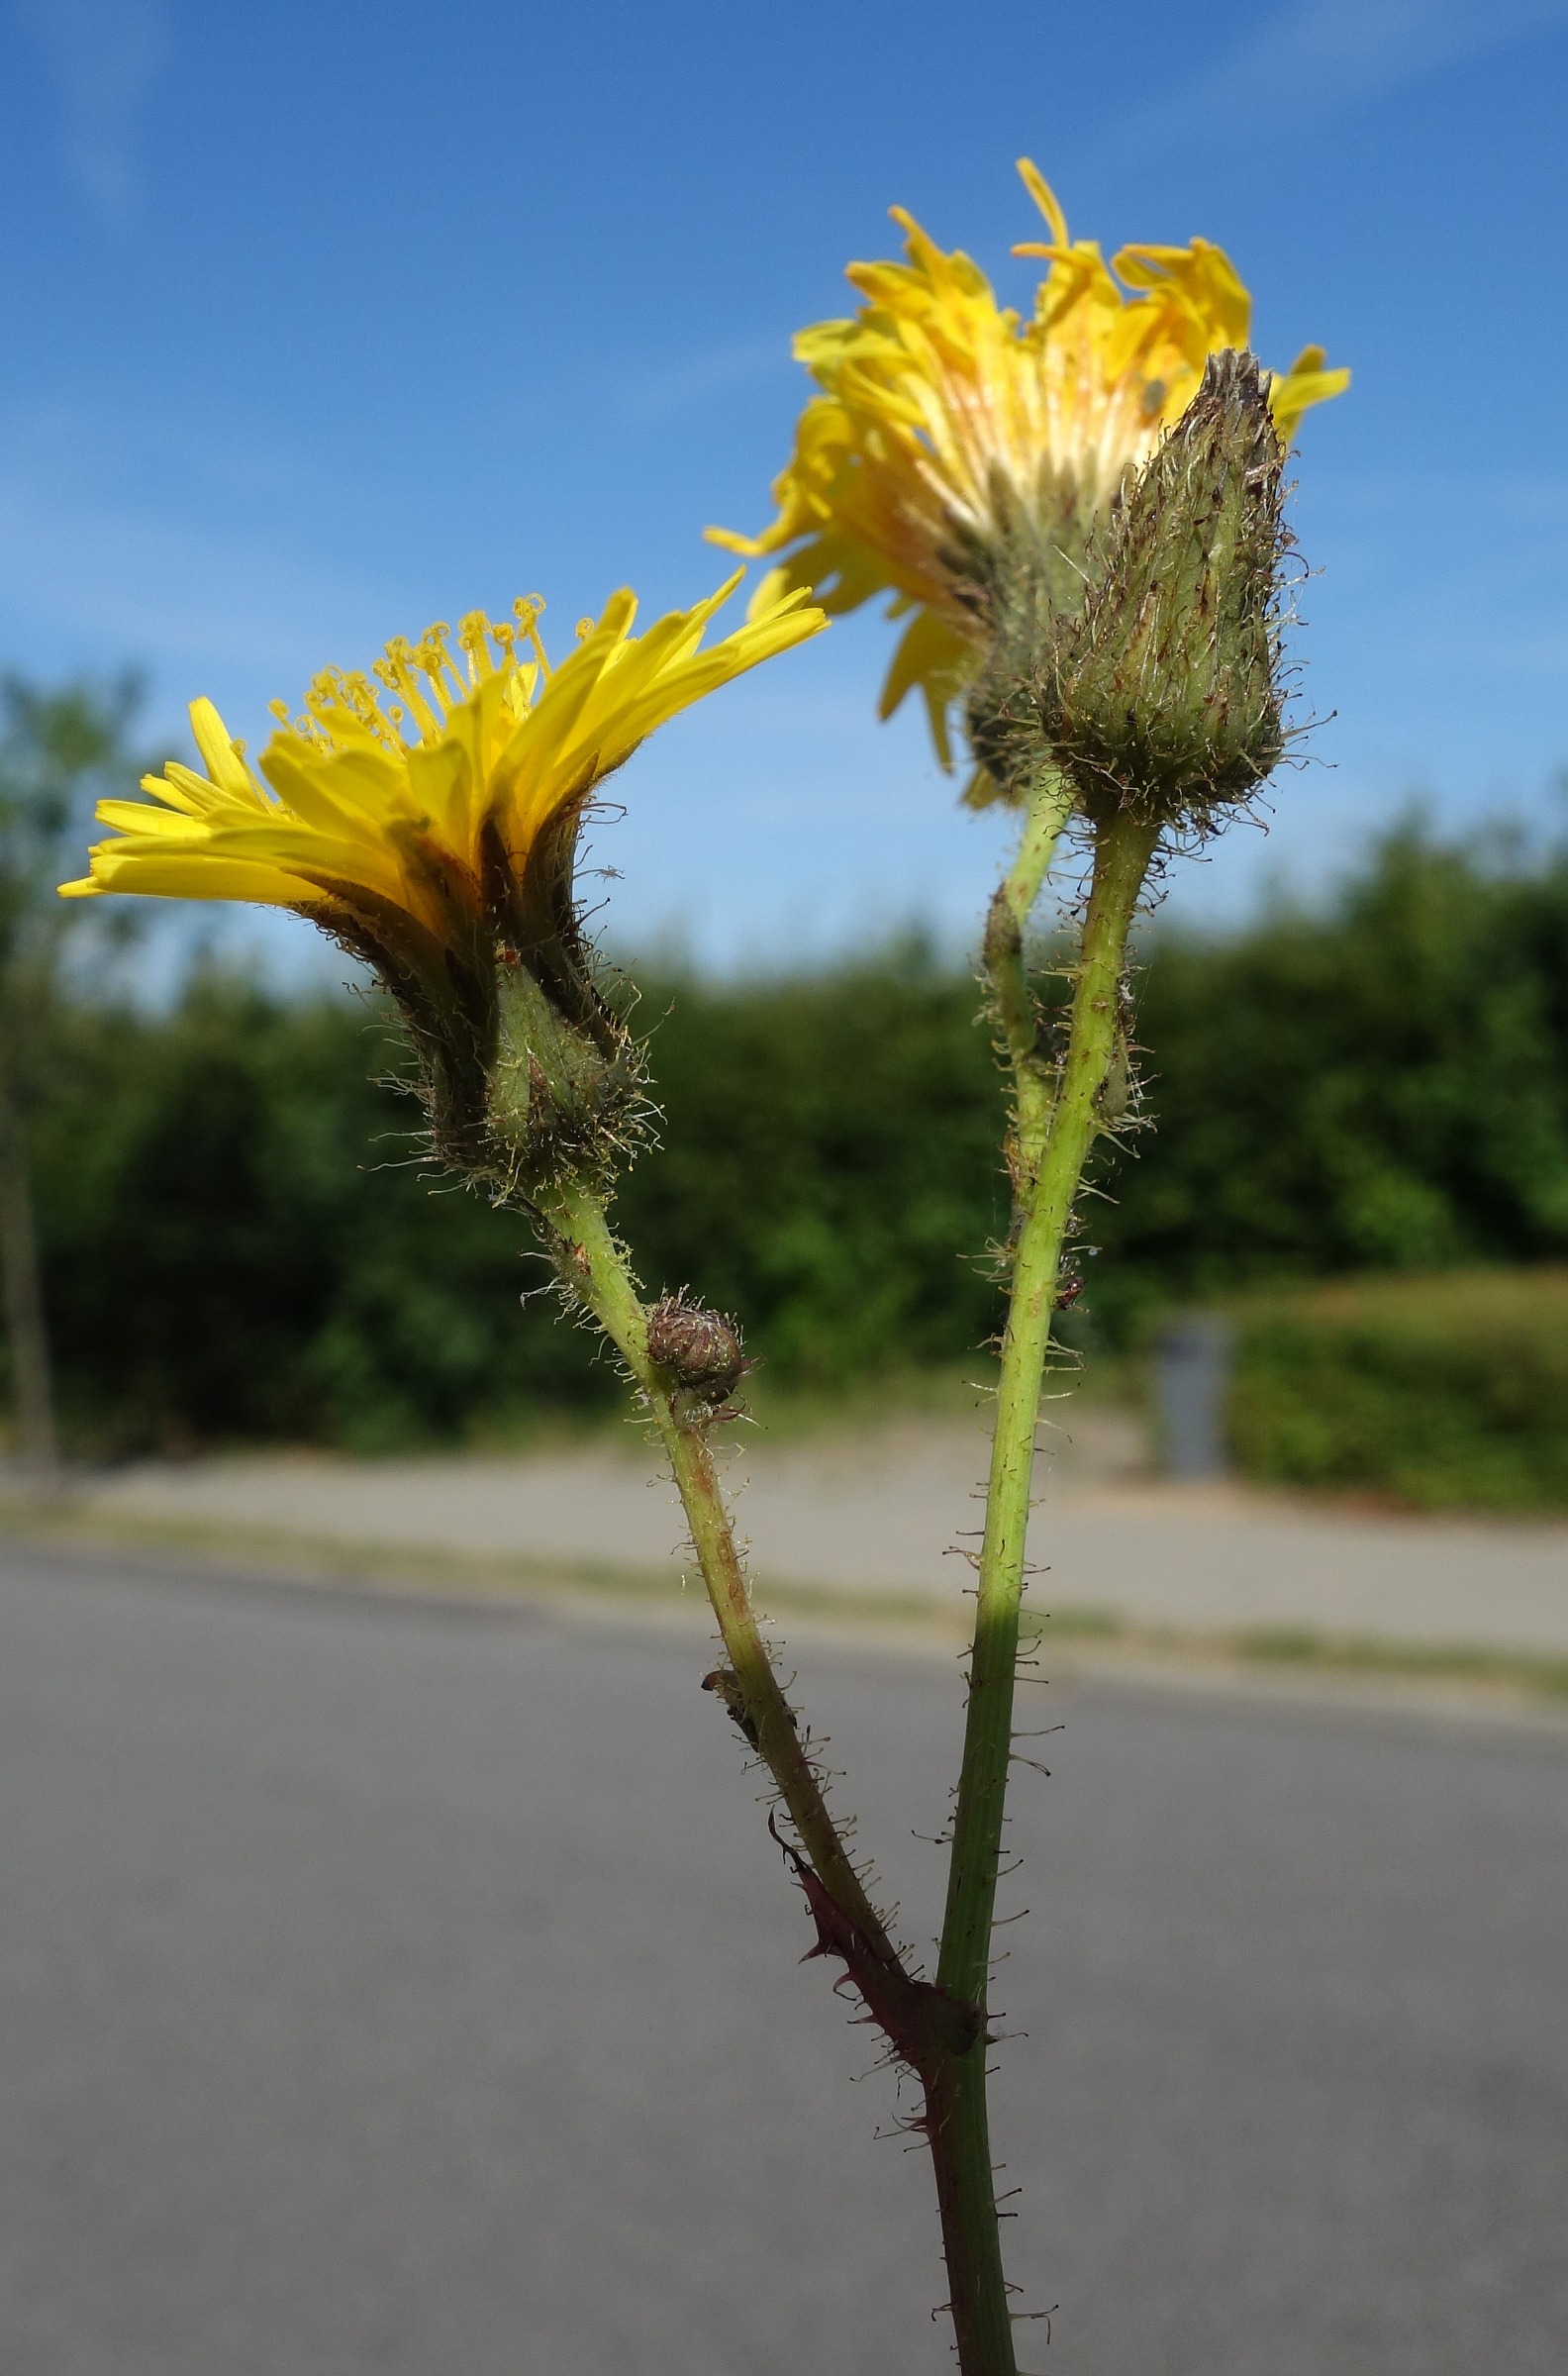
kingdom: Plantae
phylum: Tracheophyta
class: Magnoliopsida
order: Asterales
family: Asteraceae
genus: Sonchus
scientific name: Sonchus arvensis
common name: Ager-svinemælk
